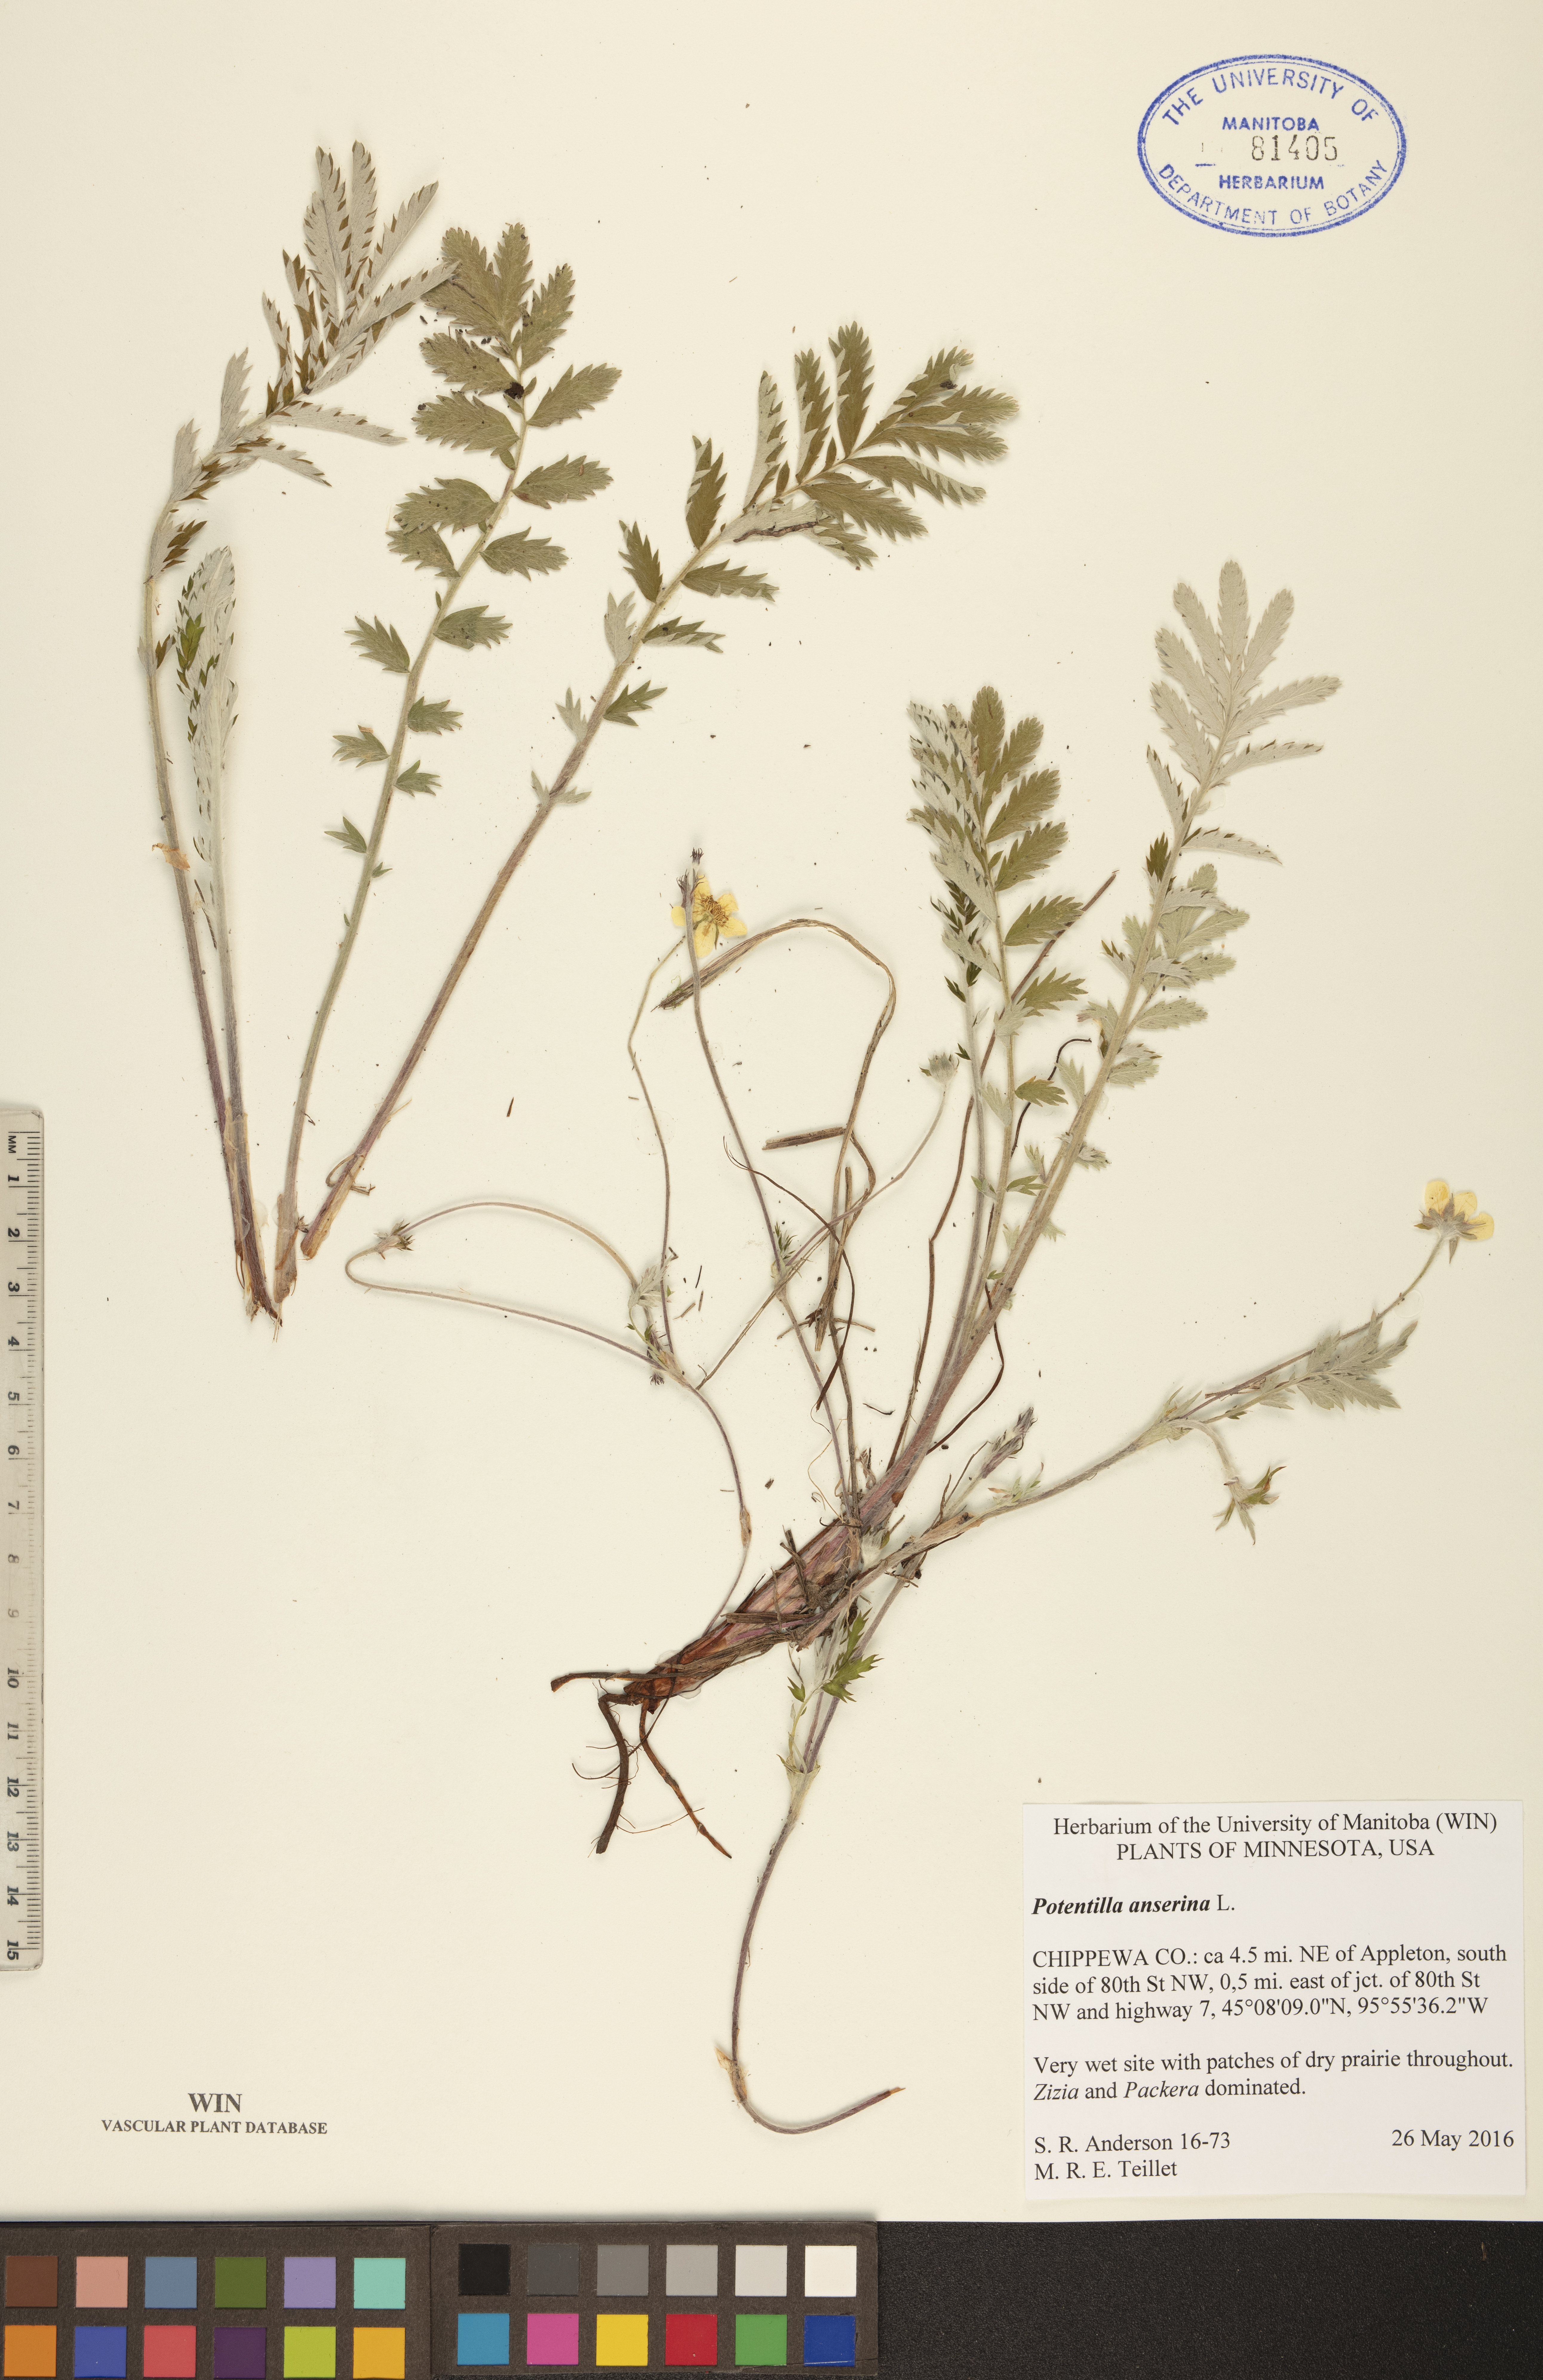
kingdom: Plantae
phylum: Tracheophyta
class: Magnoliopsida
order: Rosales
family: Rosaceae
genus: Argentina
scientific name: Argentina anserina
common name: Common silverweed
